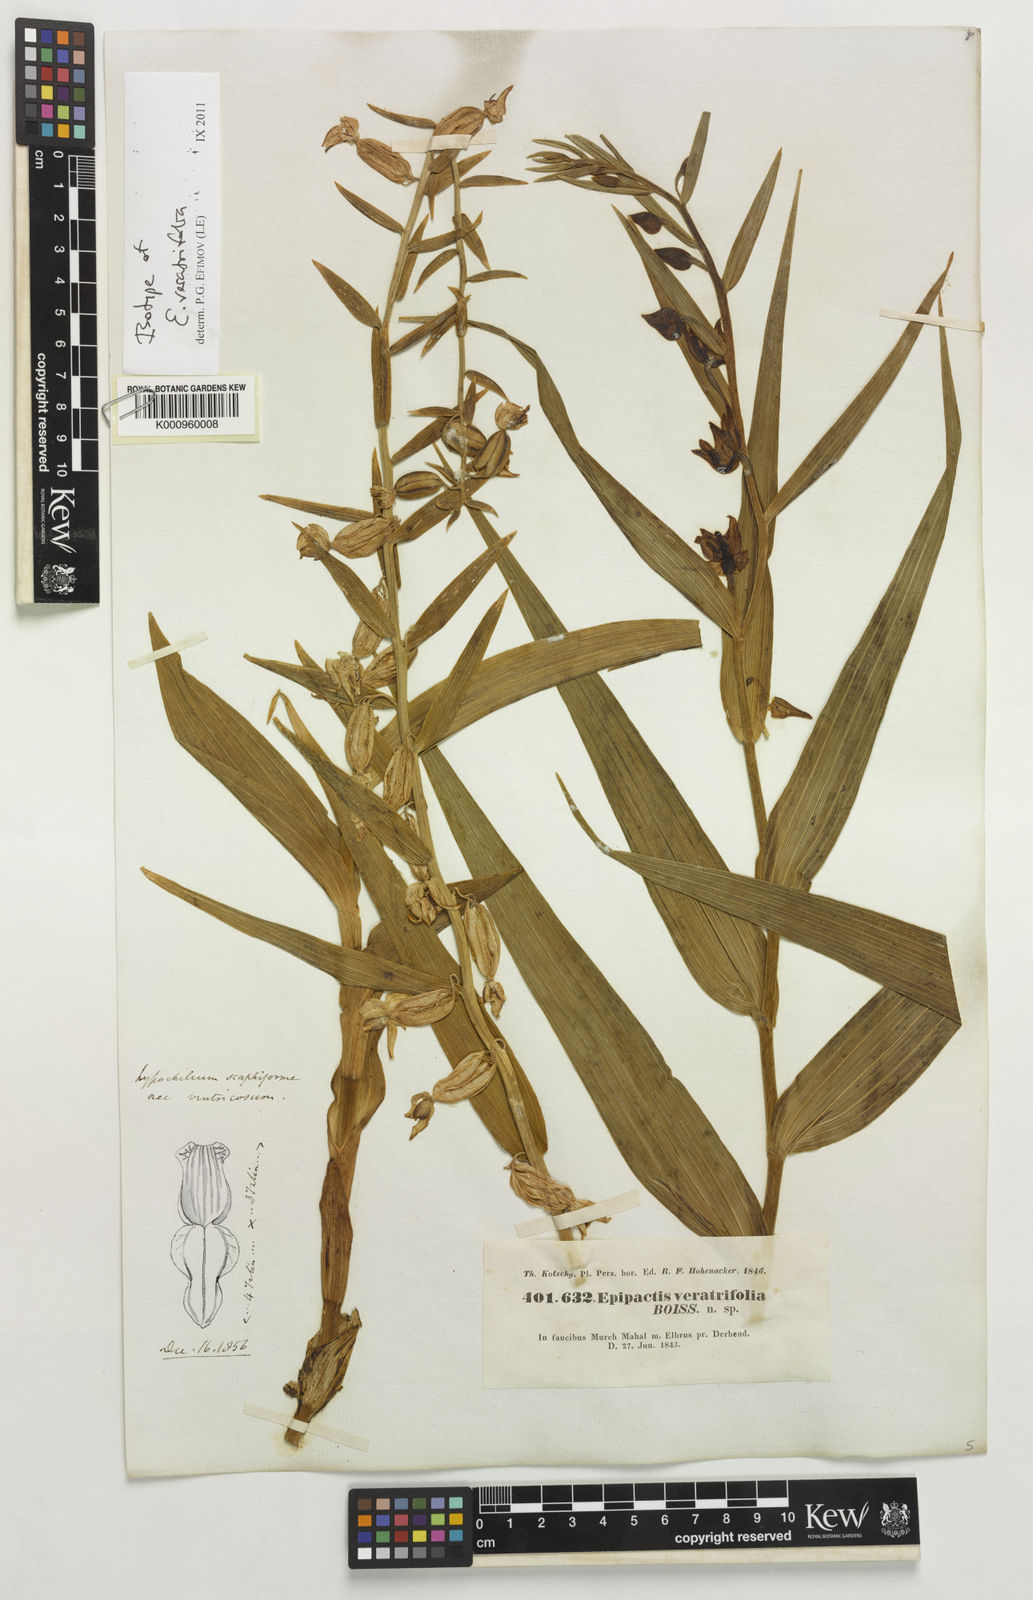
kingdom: Plantae
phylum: Tracheophyta
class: Liliopsida
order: Asparagales
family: Orchidaceae
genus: Epipactis
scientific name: Epipactis veratrifolia
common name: Eastern marsh helleborine
